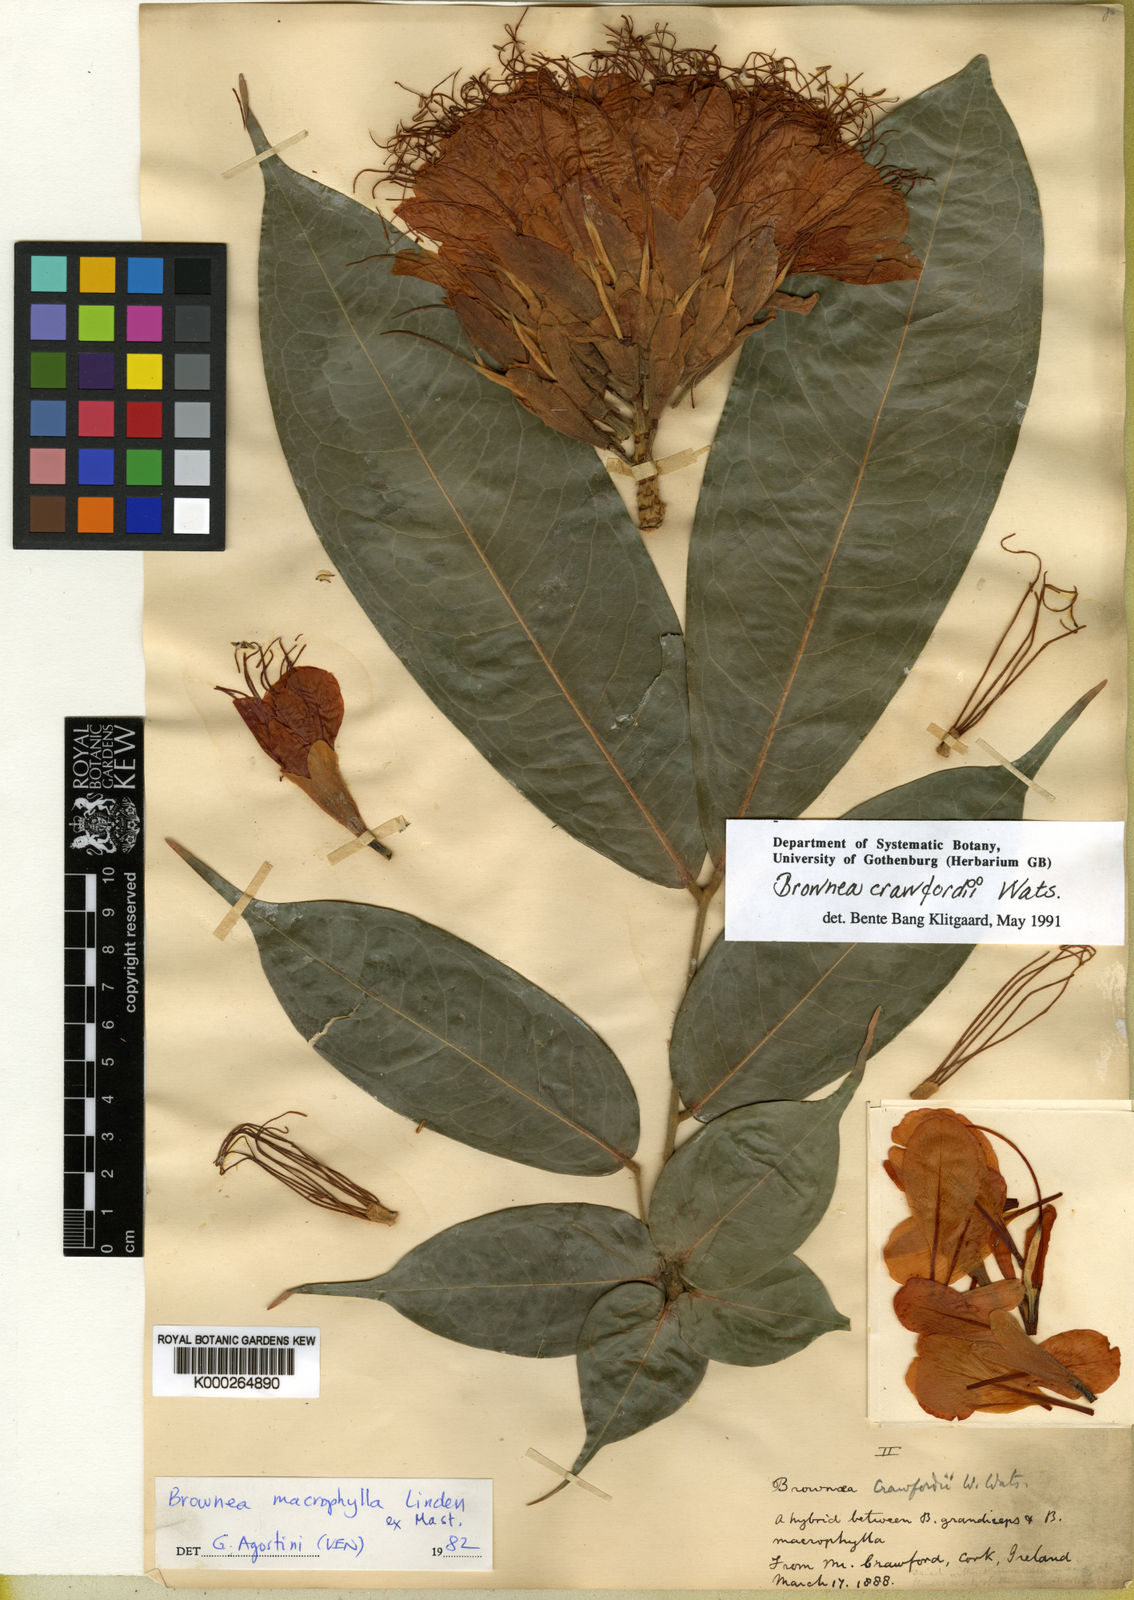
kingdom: Plantae
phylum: Tracheophyta
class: Magnoliopsida
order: Fabales
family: Fabaceae
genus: Brownea
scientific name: Brownea
